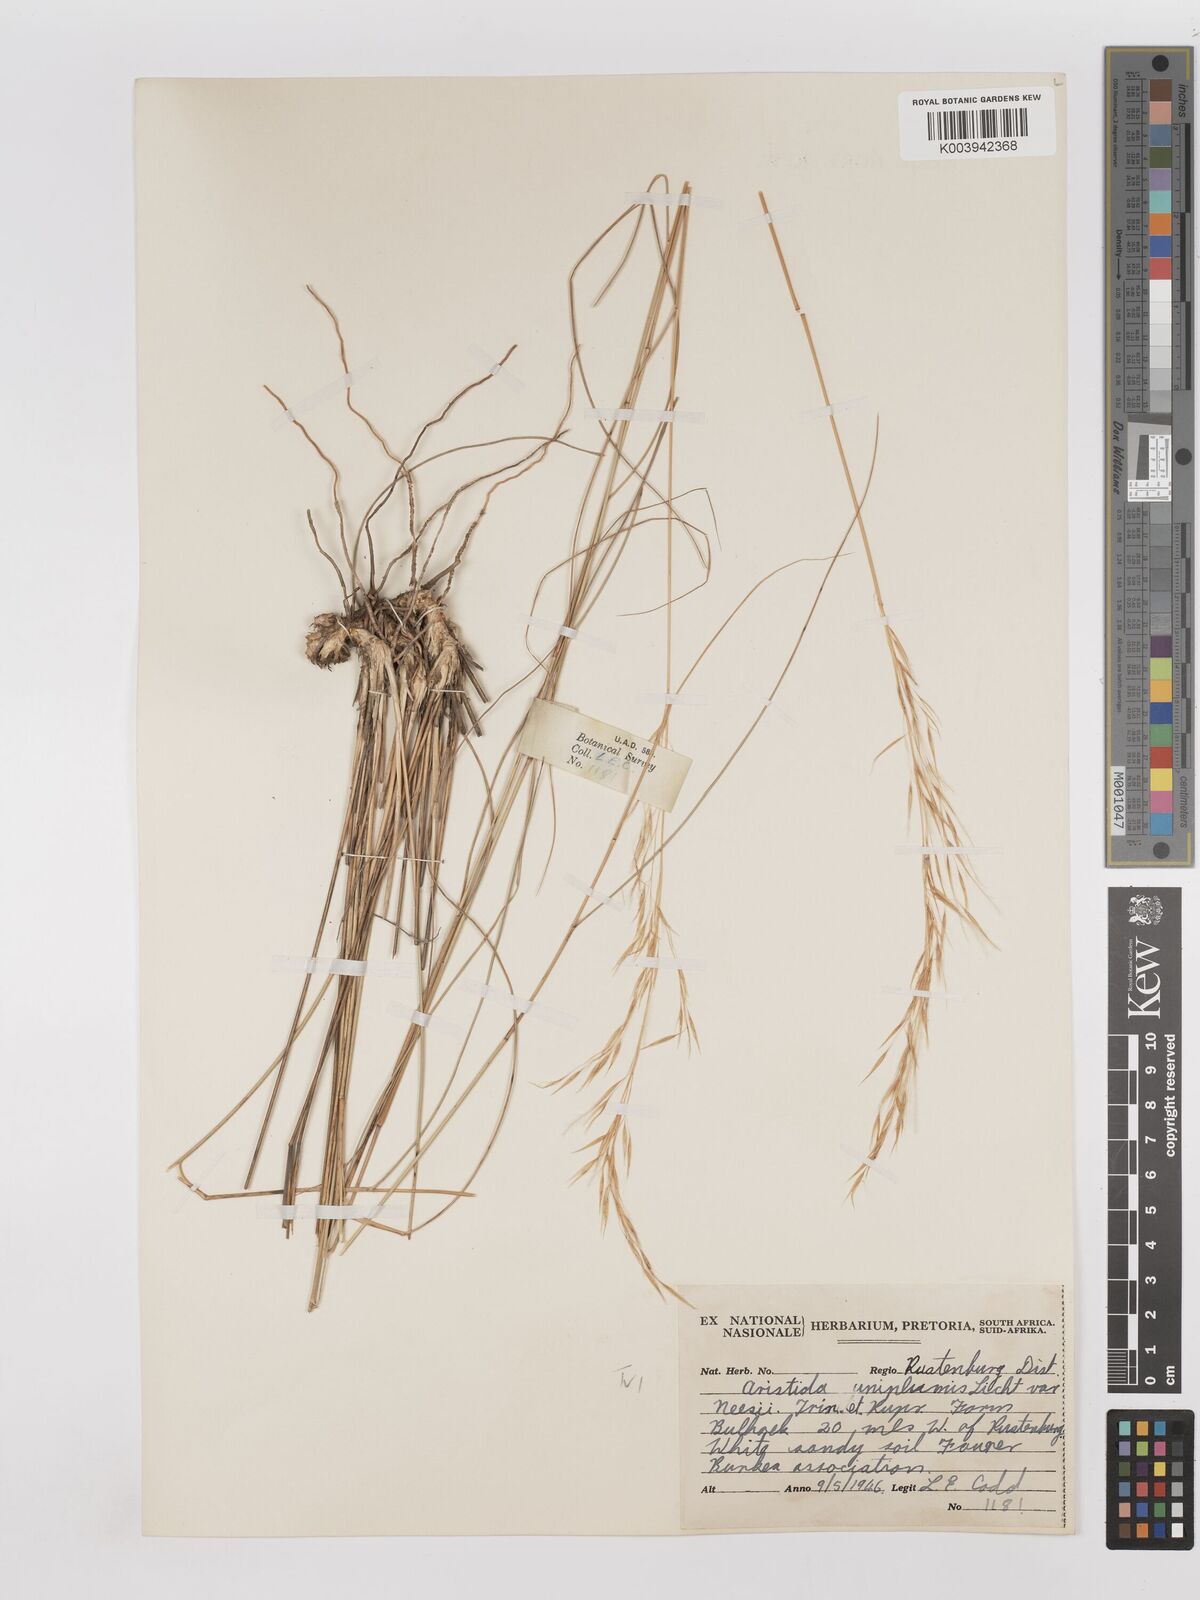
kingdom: Plantae
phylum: Tracheophyta
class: Liliopsida
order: Poales
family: Poaceae
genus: Stipagrostis
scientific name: Stipagrostis uniplumis
